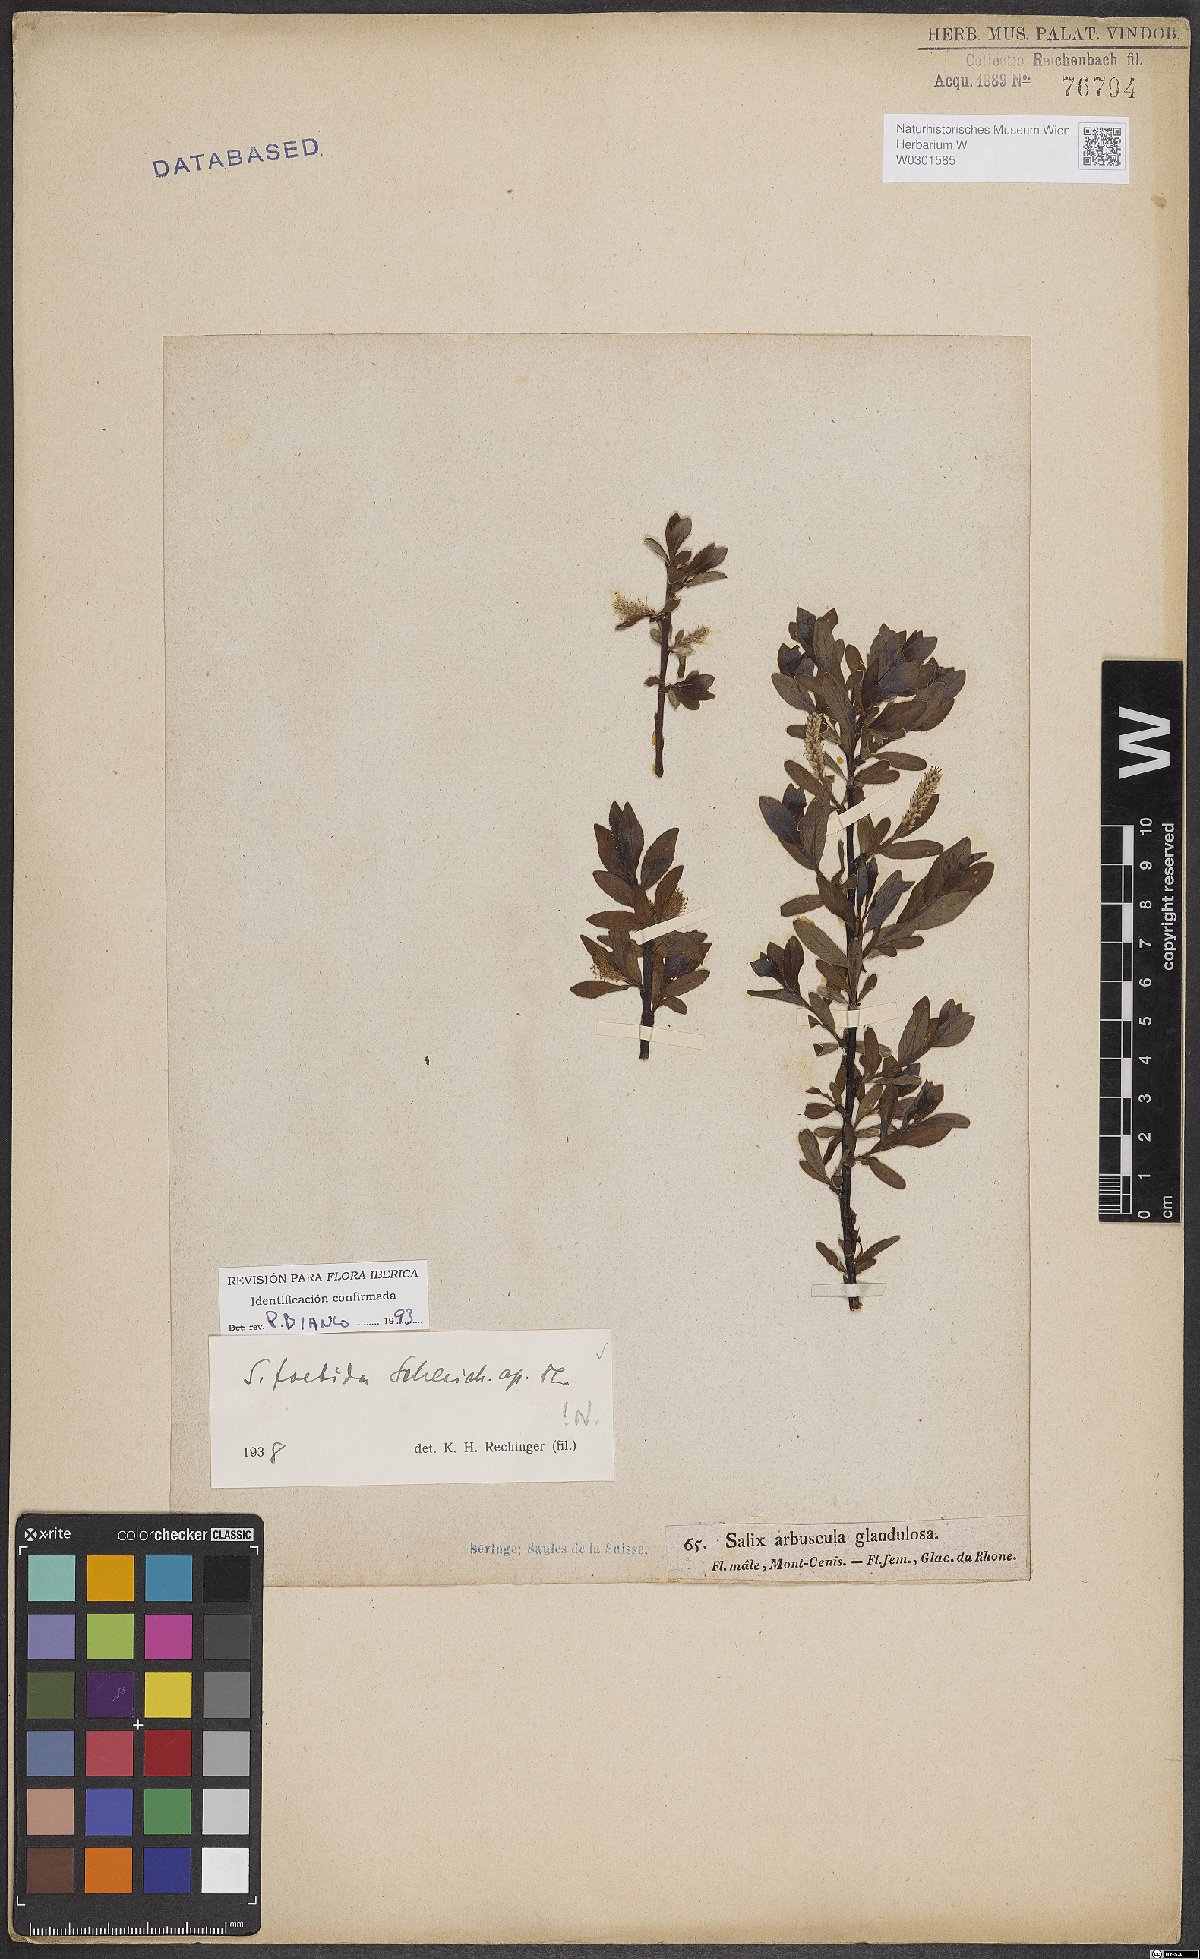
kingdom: Plantae
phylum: Tracheophyta
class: Magnoliopsida
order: Malpighiales
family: Salicaceae
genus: Salix
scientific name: Salix foetida
